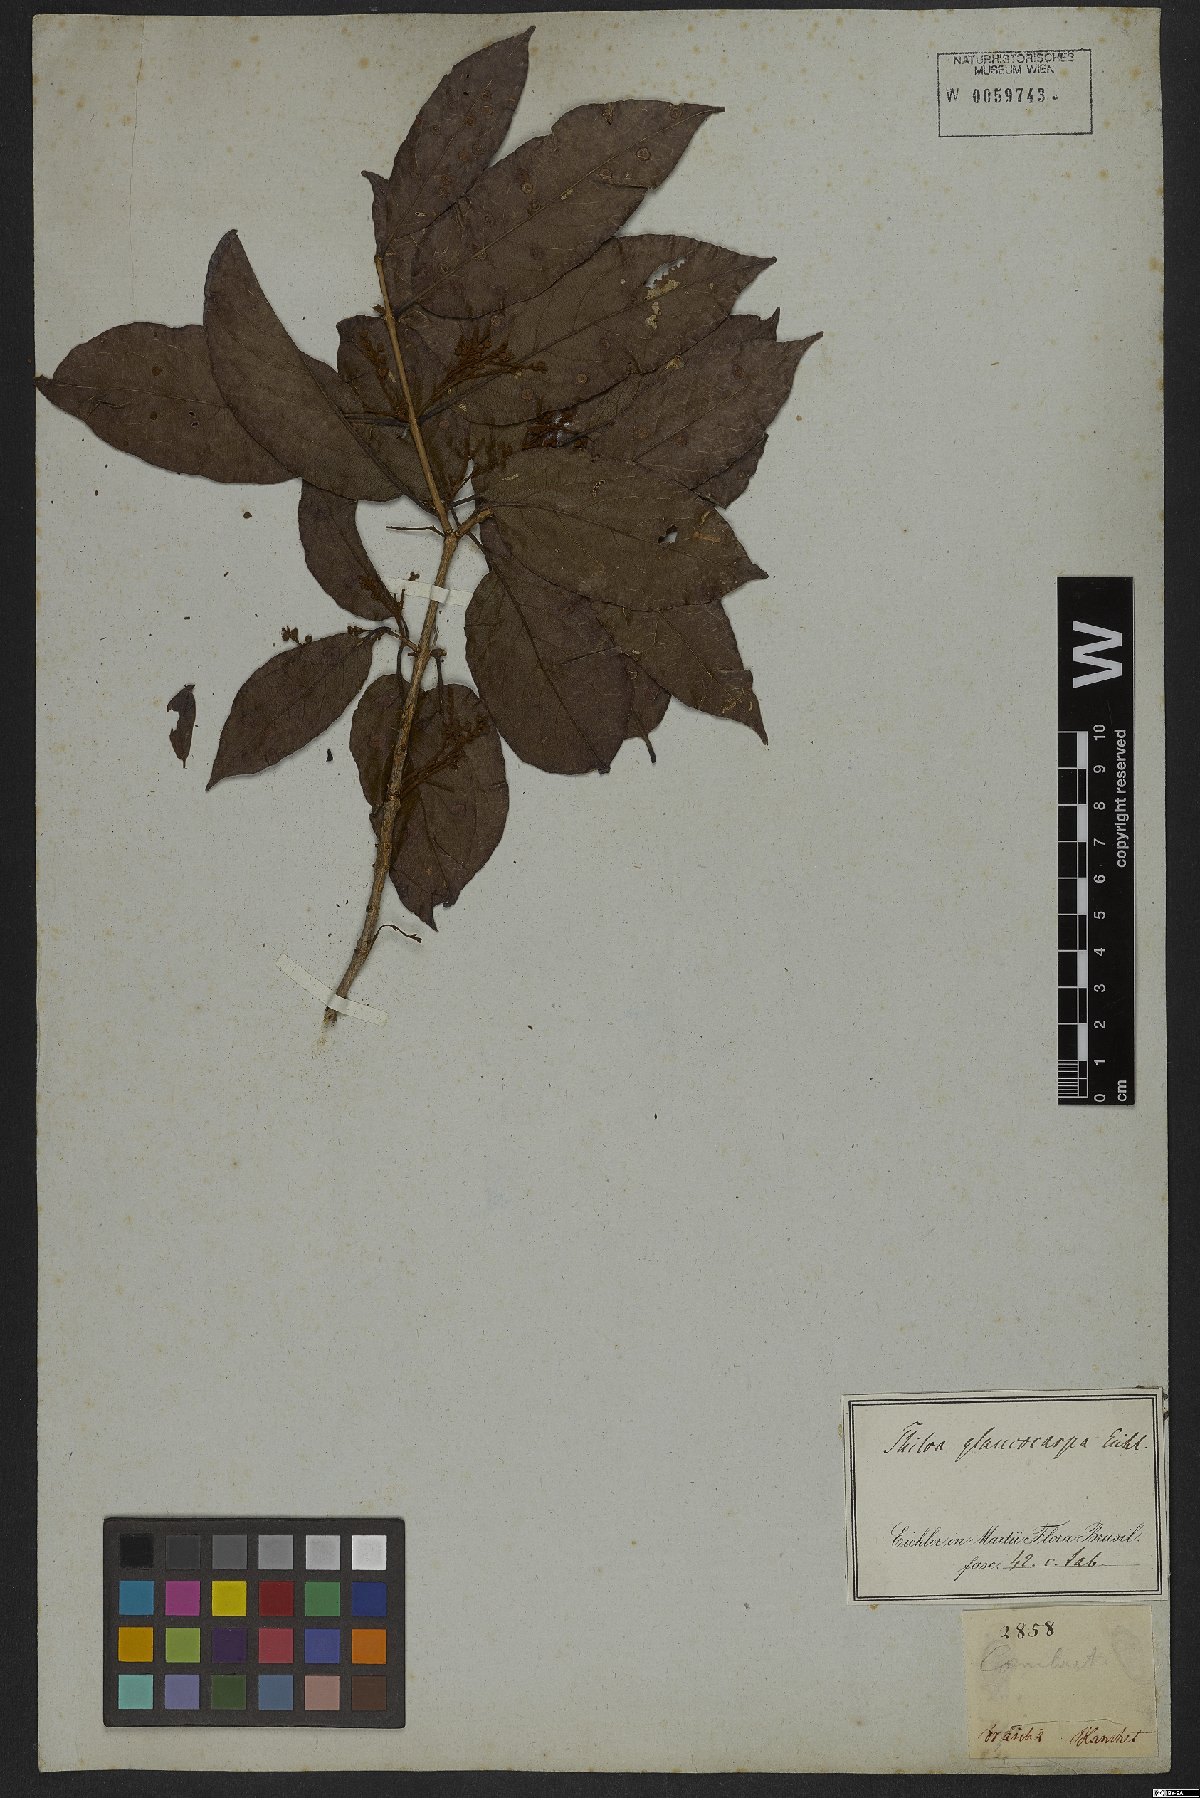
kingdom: Plantae
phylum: Tracheophyta
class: Magnoliopsida
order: Myrtales
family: Combretaceae
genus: Combretum
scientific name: Combretum glaucocarpum
